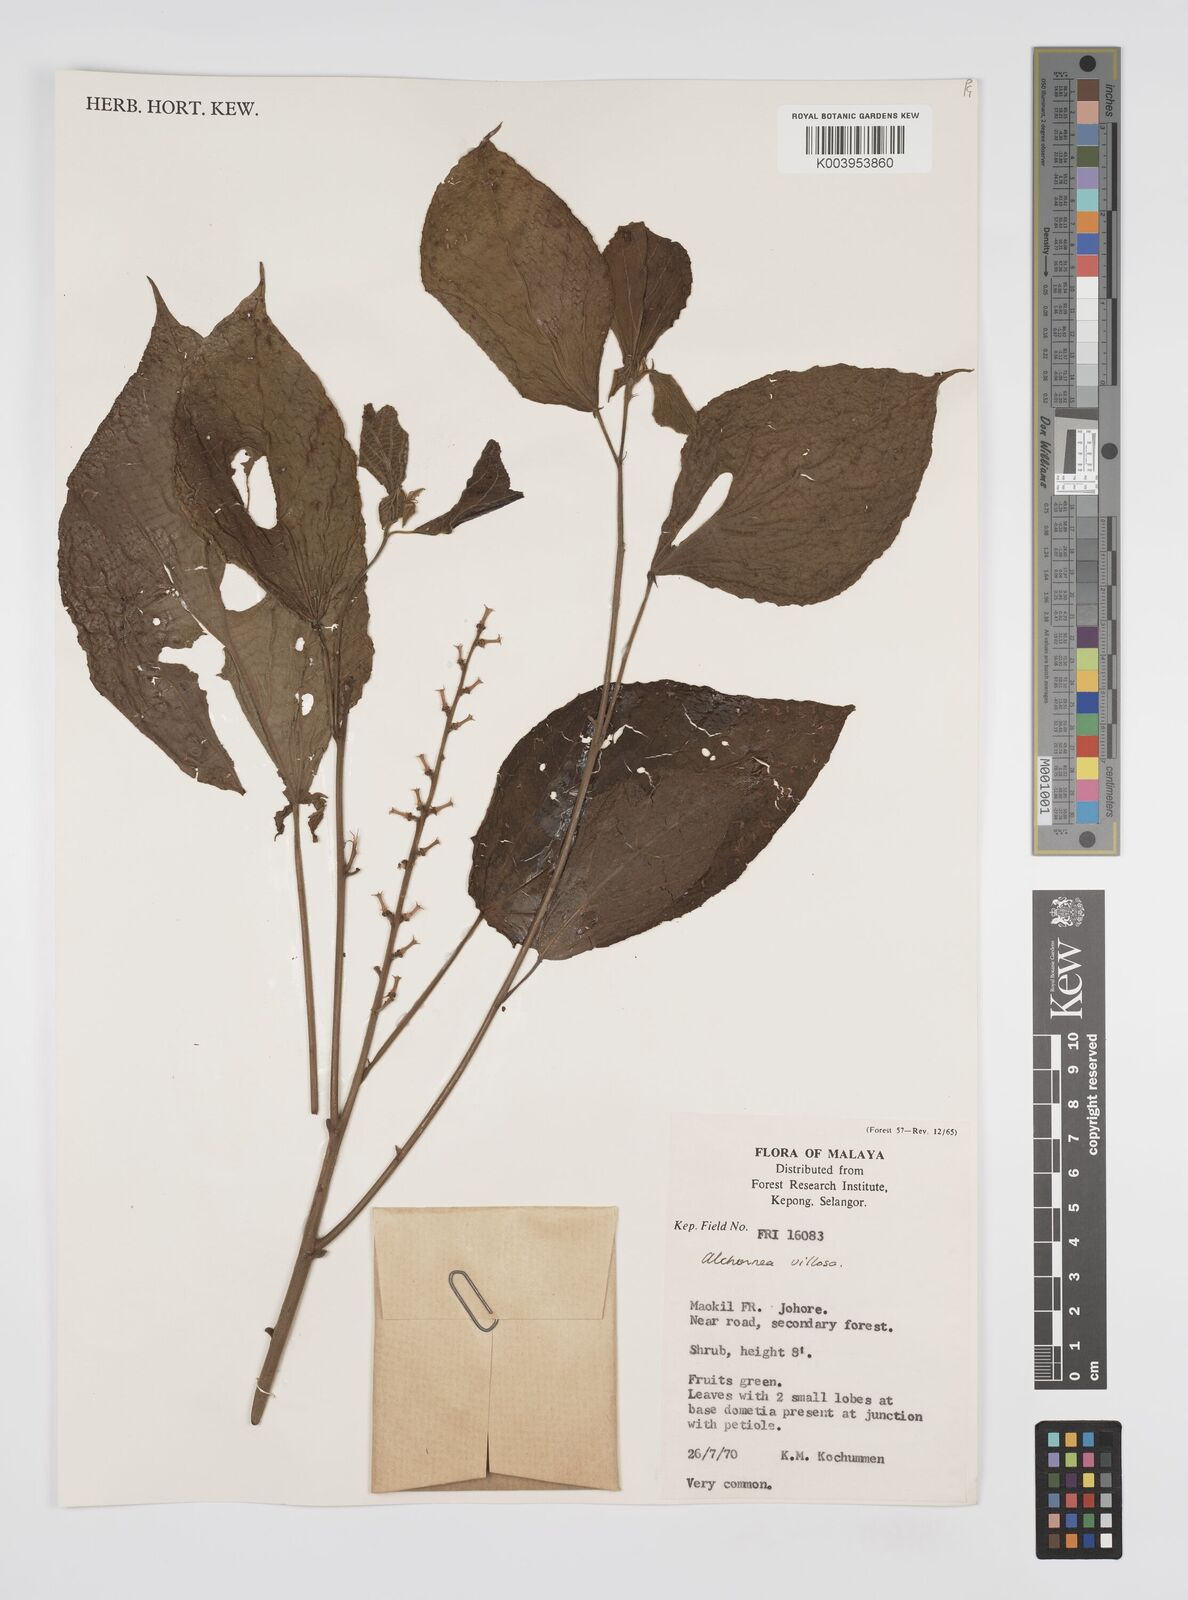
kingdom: Plantae
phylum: Tracheophyta
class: Magnoliopsida
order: Malpighiales
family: Euphorbiaceae
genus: Alchornea
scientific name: Alchornea tiliifolia
